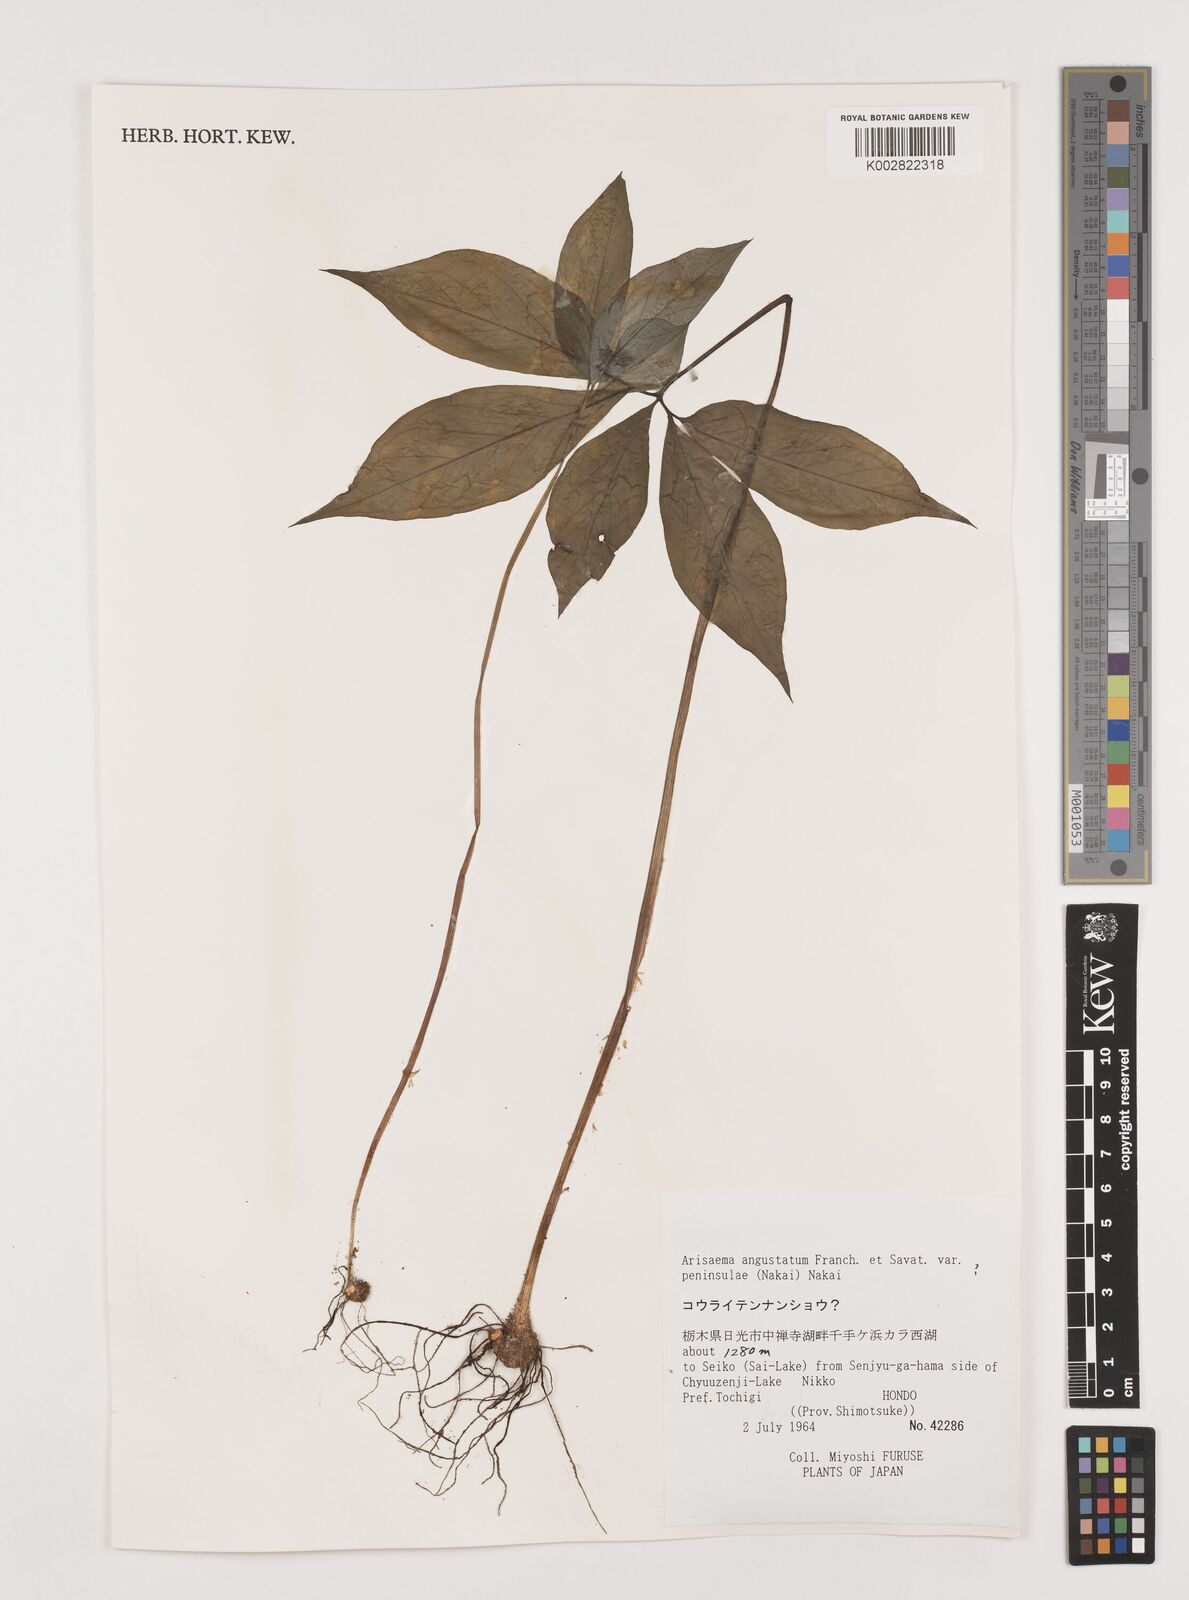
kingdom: Plantae
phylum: Tracheophyta
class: Liliopsida
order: Alismatales
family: Araceae
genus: Arisaema
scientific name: Arisaema angustatum
